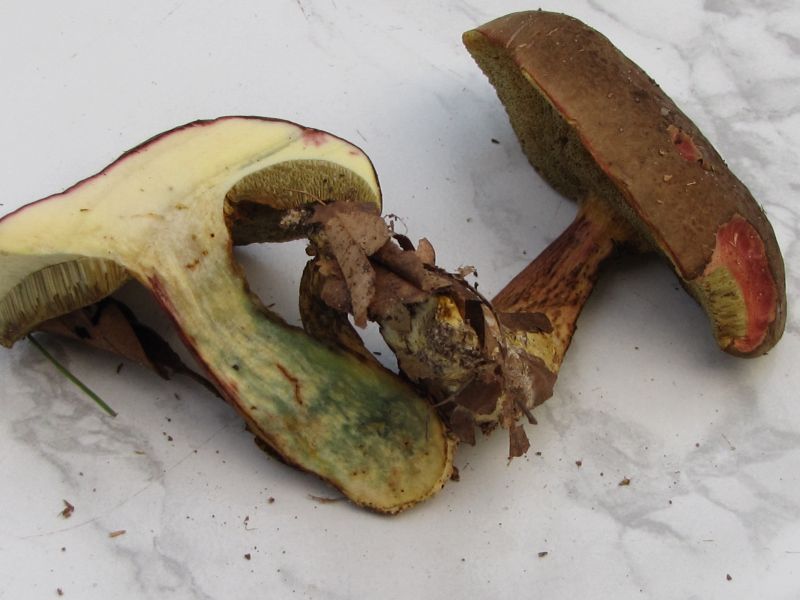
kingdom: Fungi
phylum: Basidiomycota
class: Agaricomycetes
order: Boletales
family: Boletaceae
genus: Xerocomellus
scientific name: Xerocomellus pruinatus
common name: dugget rørhat
